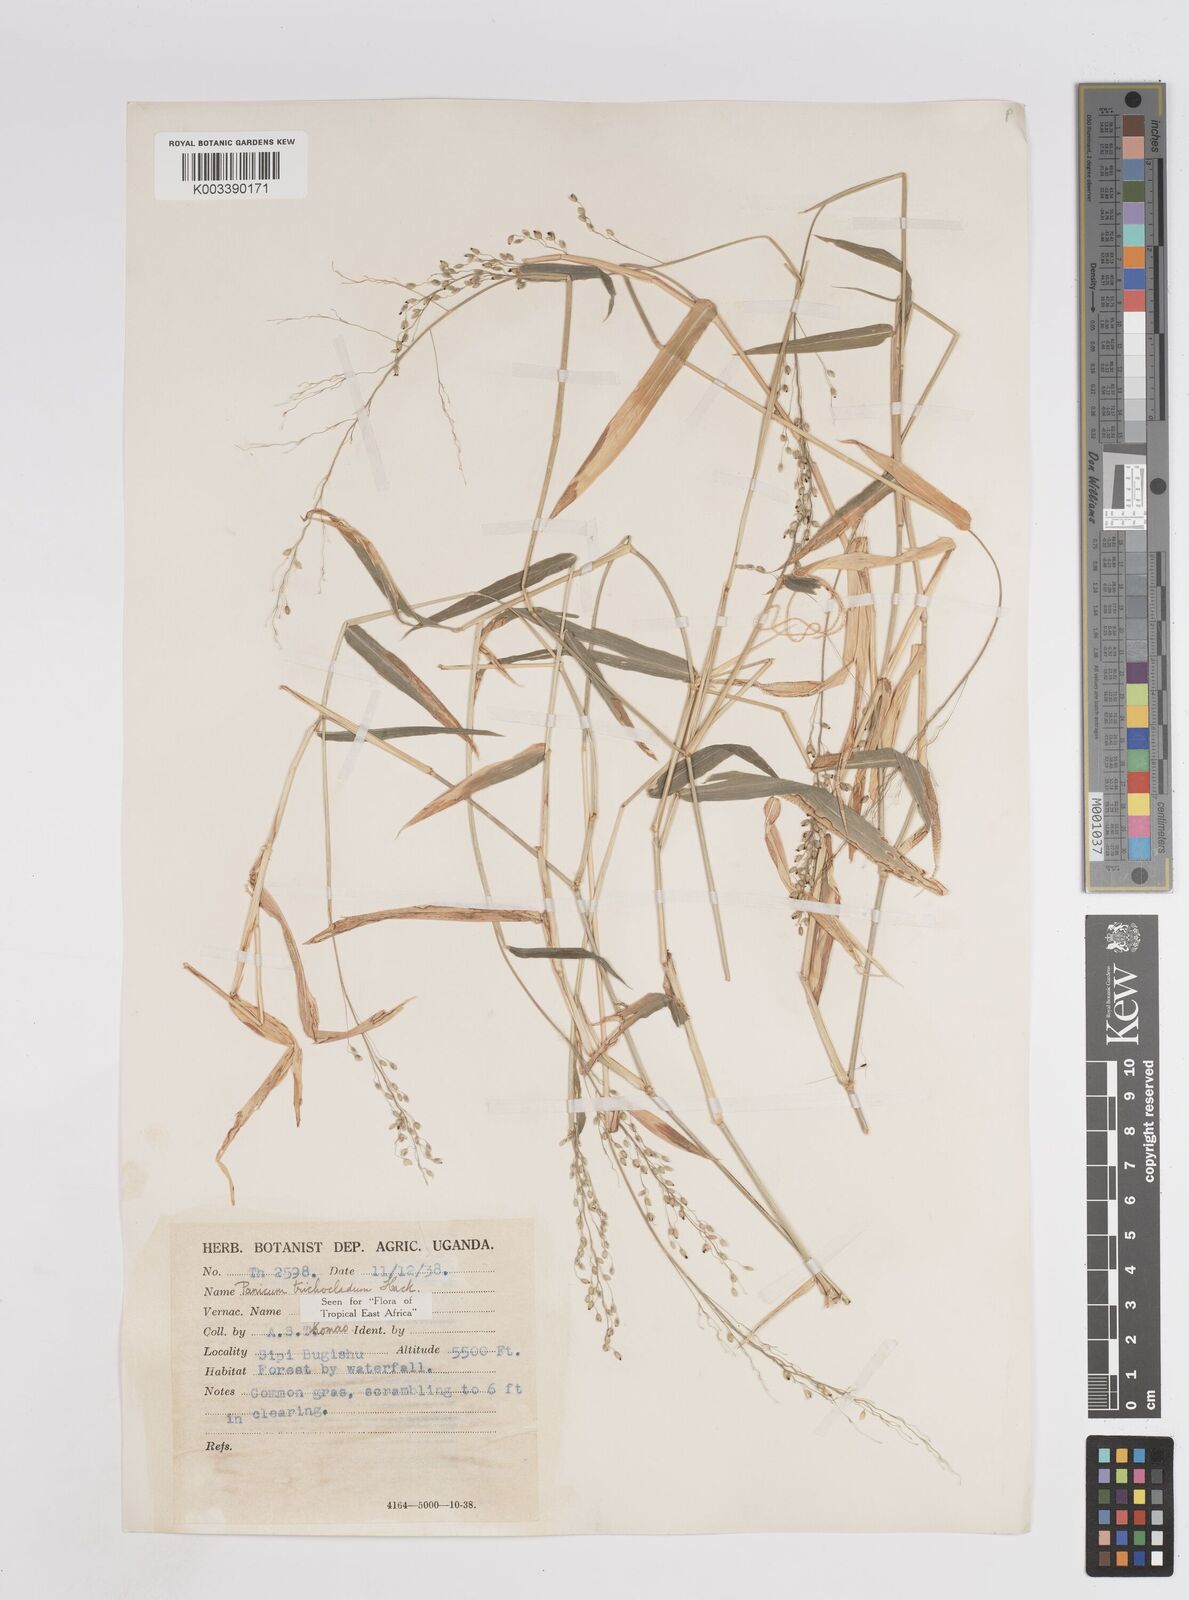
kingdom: Plantae
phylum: Tracheophyta
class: Liliopsida
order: Poales
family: Poaceae
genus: Panicum
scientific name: Panicum trichocladum
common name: Donkey grass
